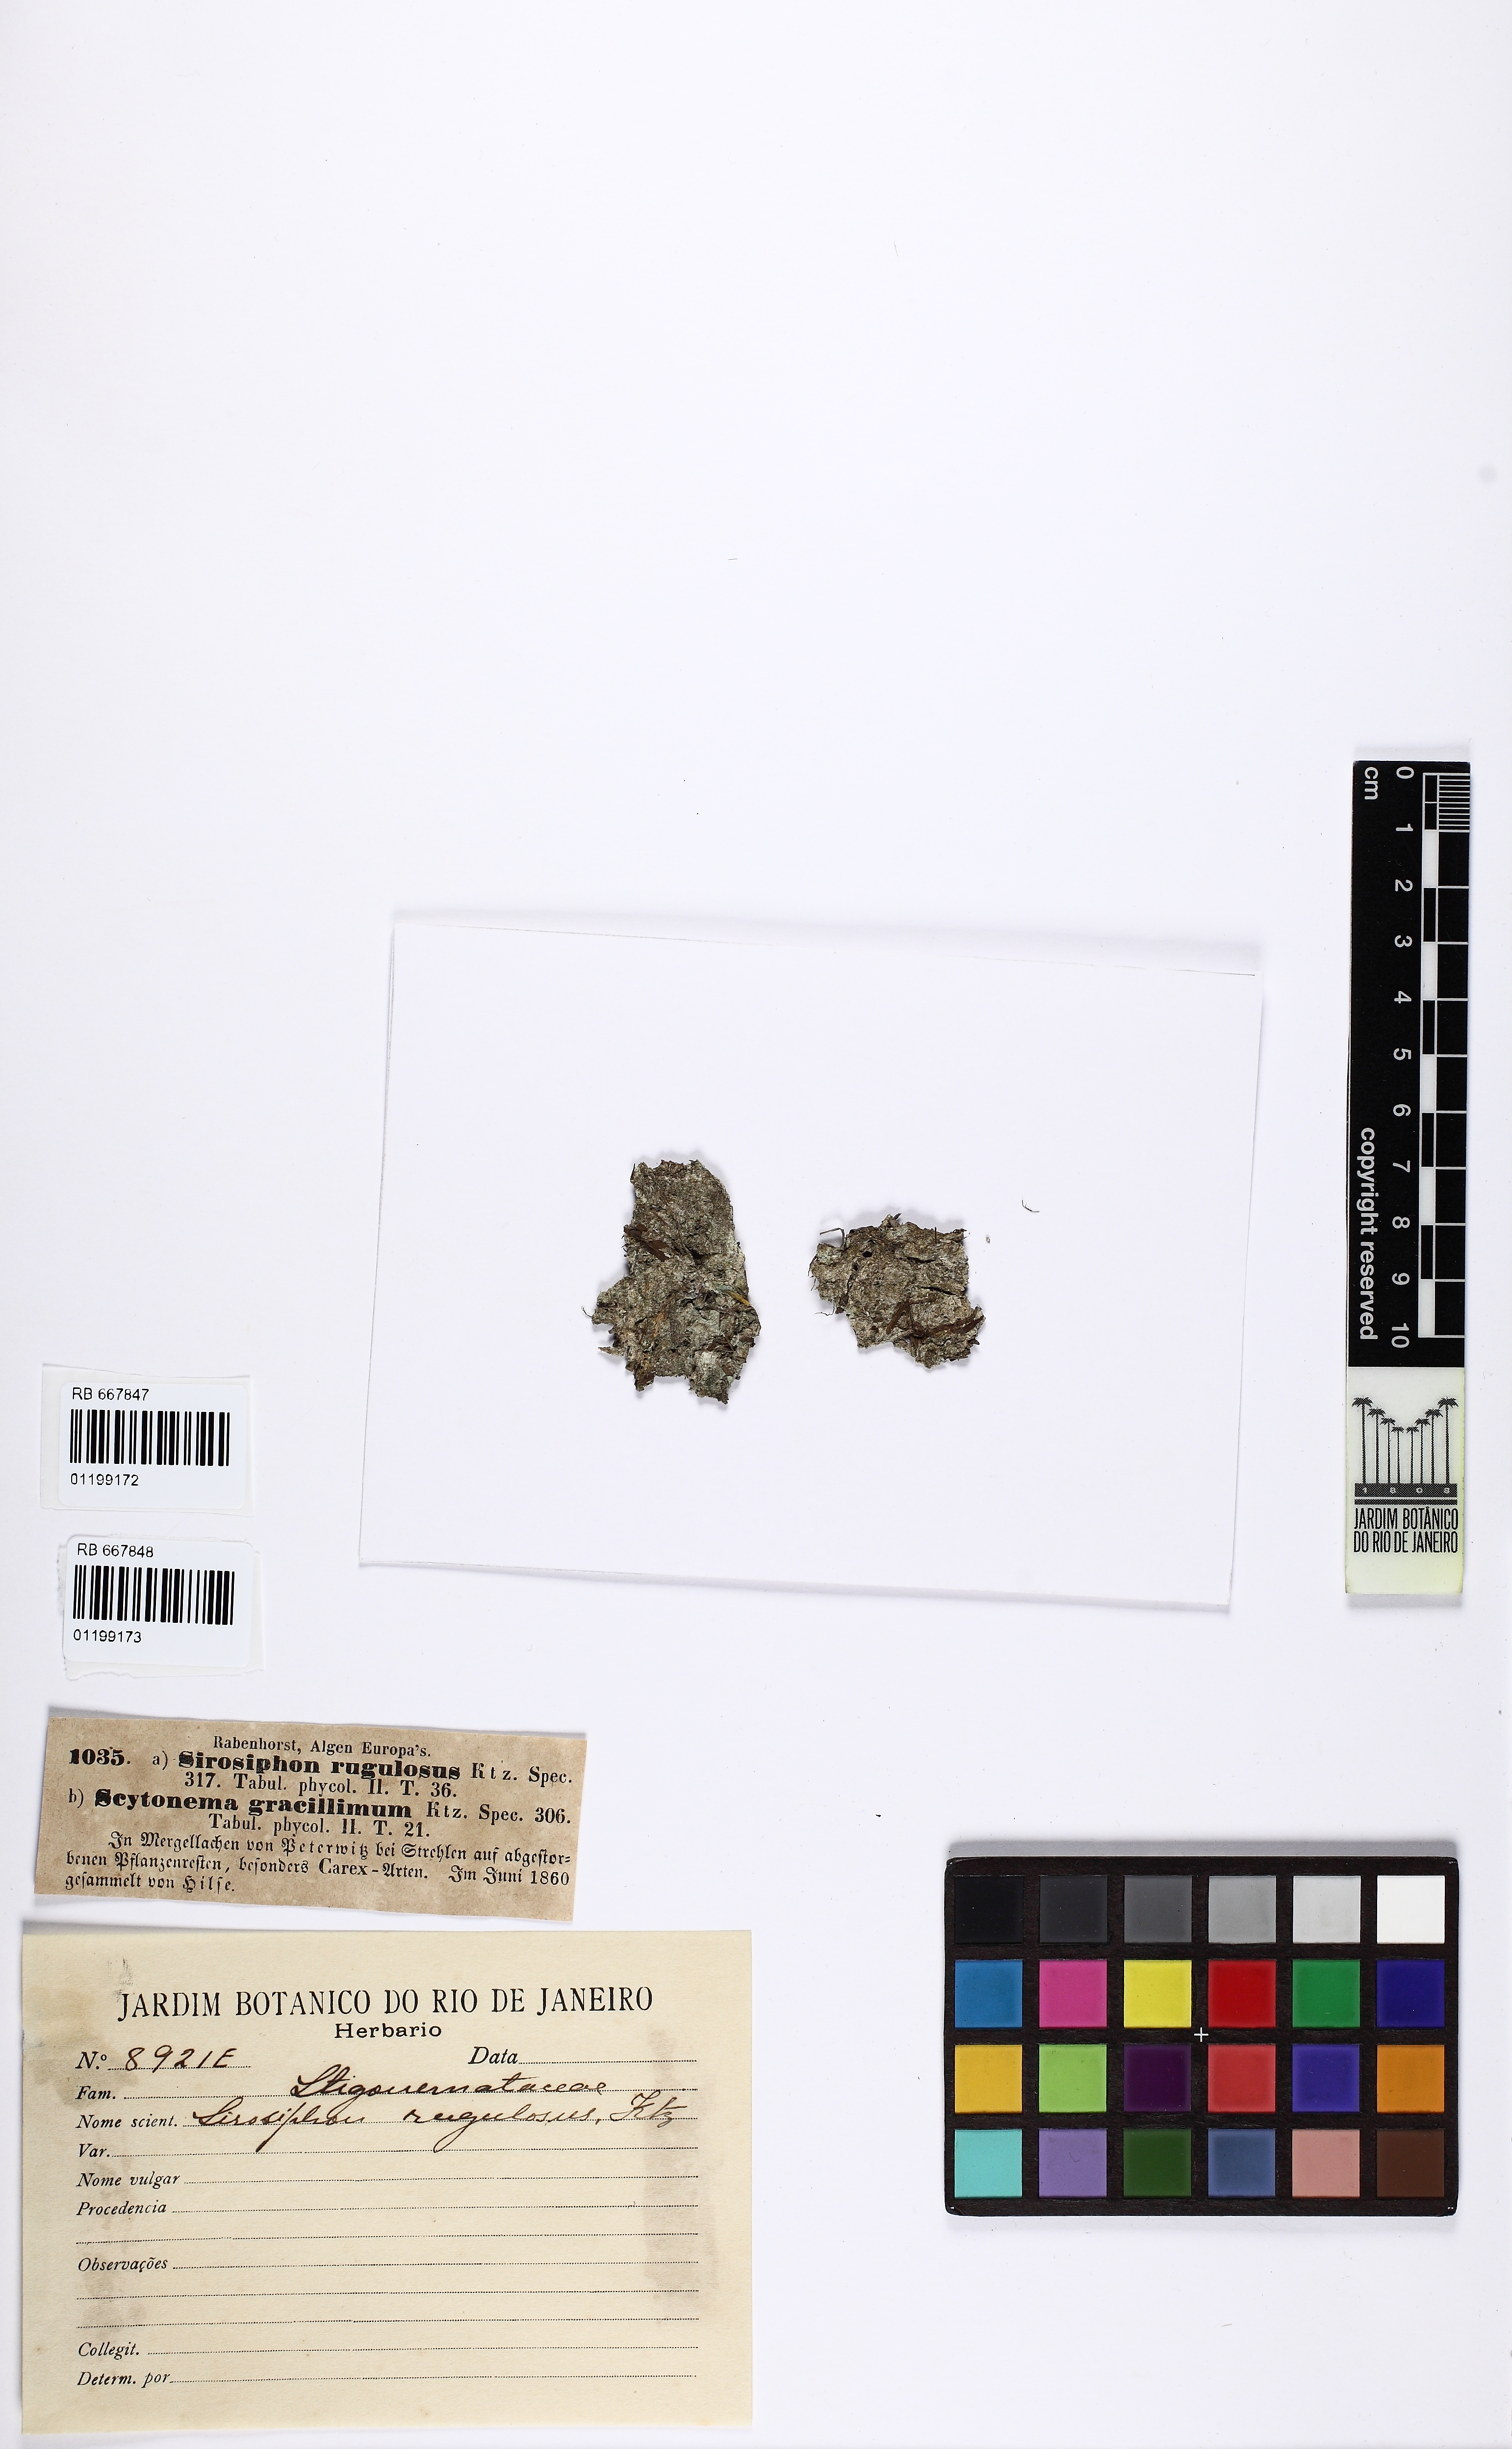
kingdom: Bacteria
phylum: Cyanobacteria
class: Cyanobacteriia
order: Cyanobacteriales
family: Stigonemataceae
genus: Sirosiphon
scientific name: Sirosiphon
